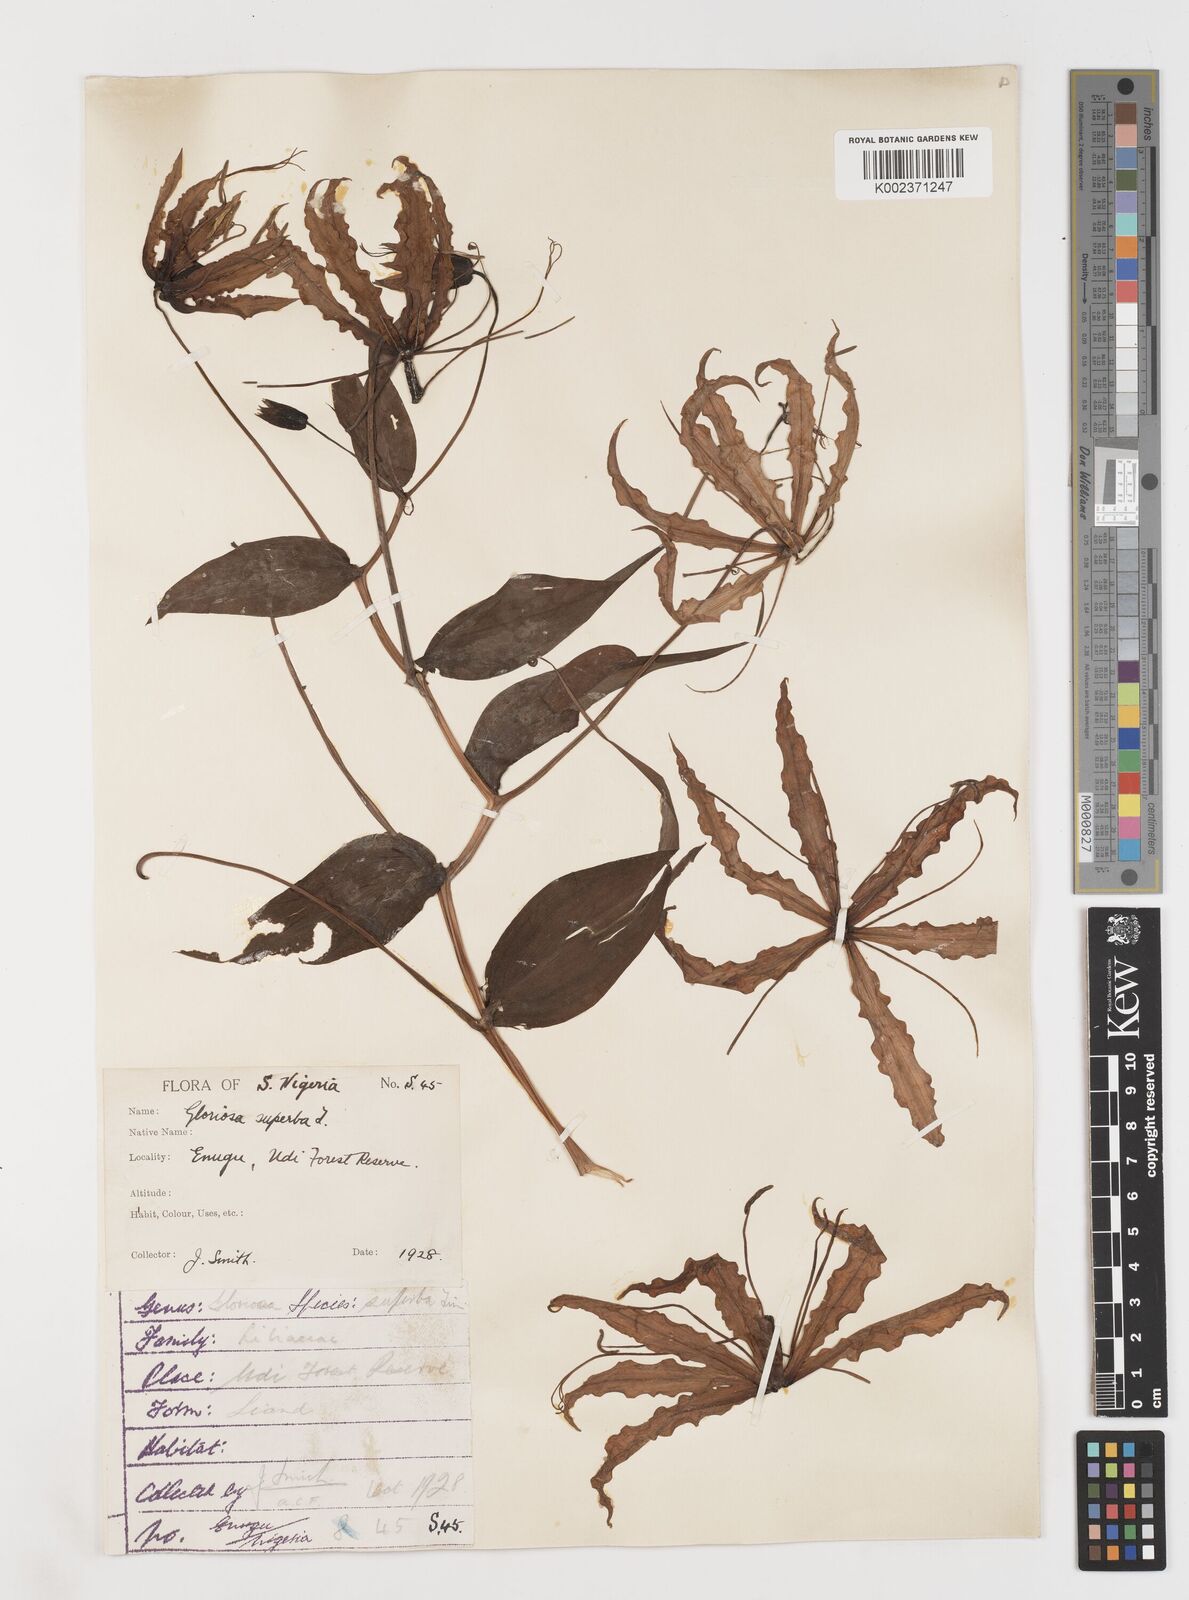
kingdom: Plantae
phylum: Tracheophyta
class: Liliopsida
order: Liliales
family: Colchicaceae
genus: Gloriosa
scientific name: Gloriosa superba
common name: Flame lily
